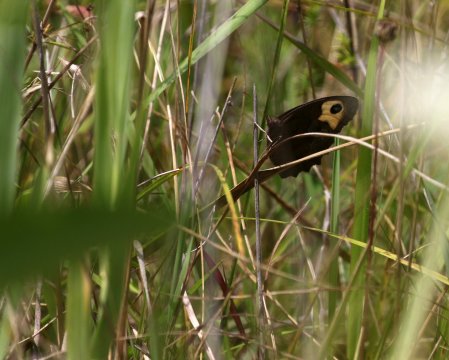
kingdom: Animalia
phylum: Arthropoda
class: Insecta
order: Lepidoptera
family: Nymphalidae
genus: Cercyonis
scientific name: Cercyonis pegala
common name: Common Wood-Nymph
